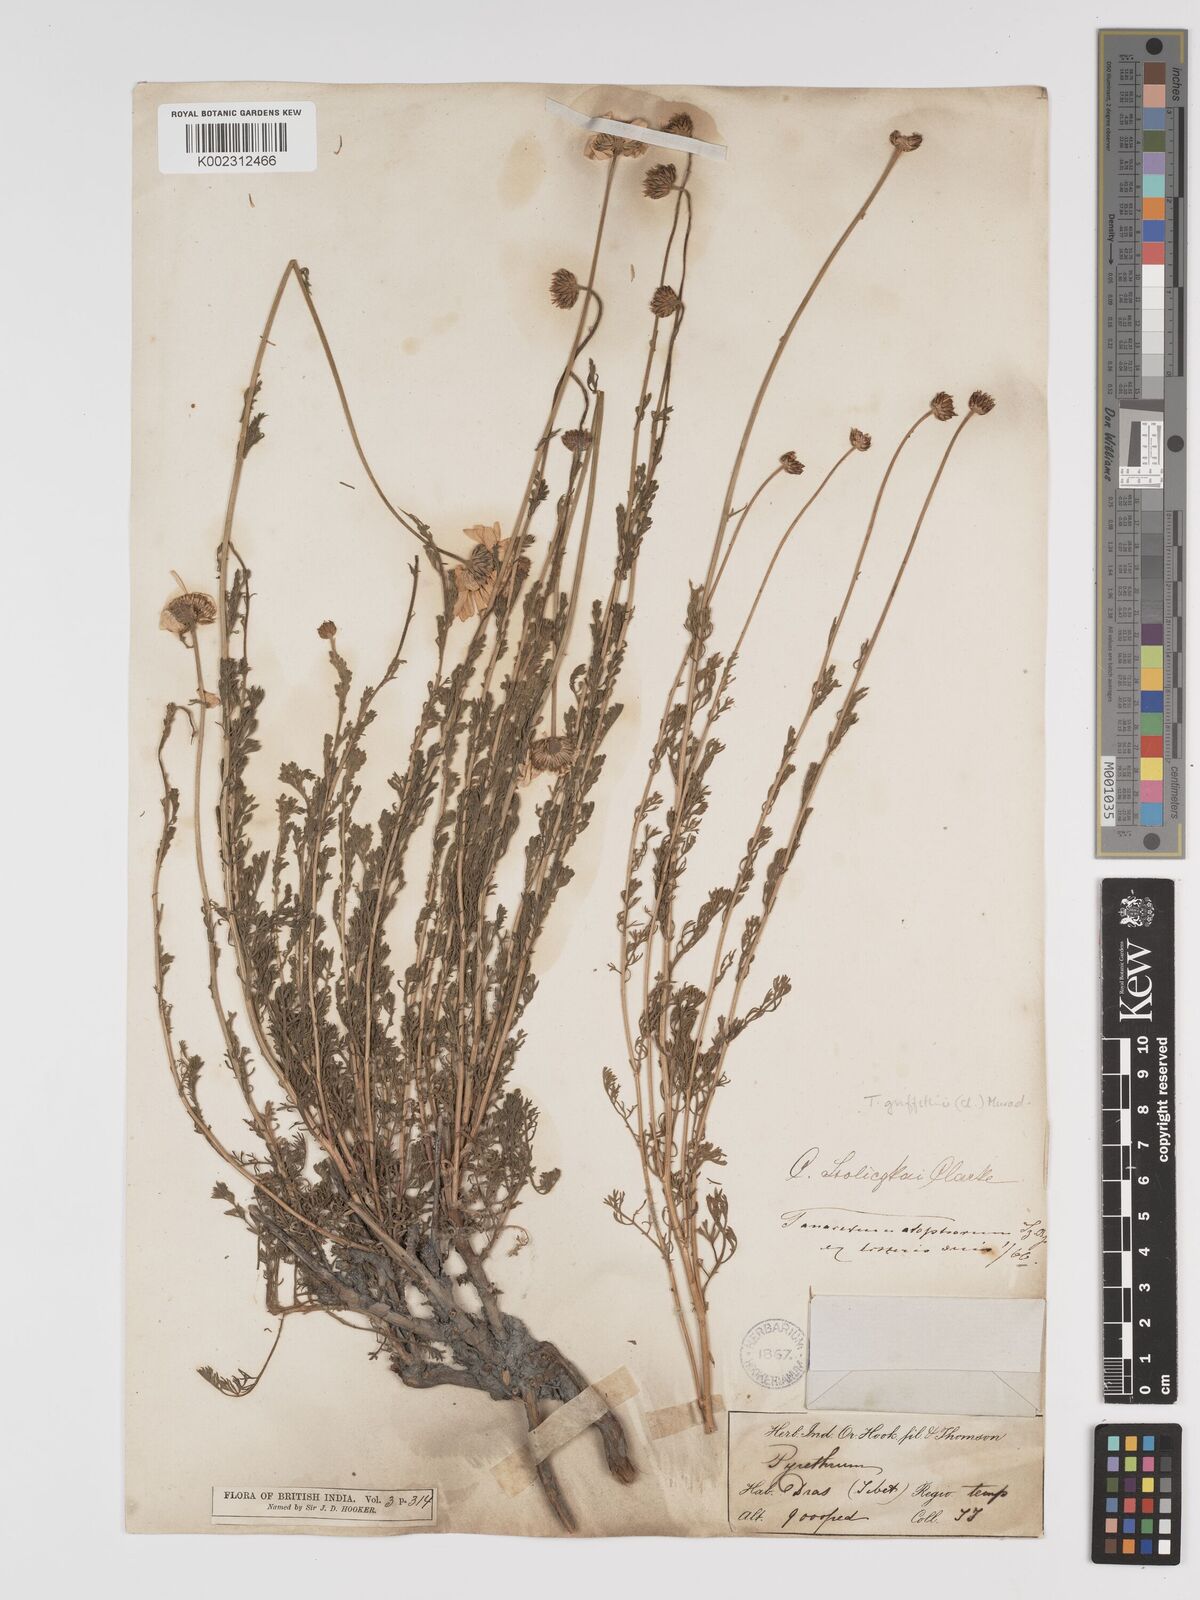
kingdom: Plantae
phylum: Tracheophyta
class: Magnoliopsida
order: Asterales
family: Asteraceae
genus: Tanacetum
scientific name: Tanacetum stoliczkae
